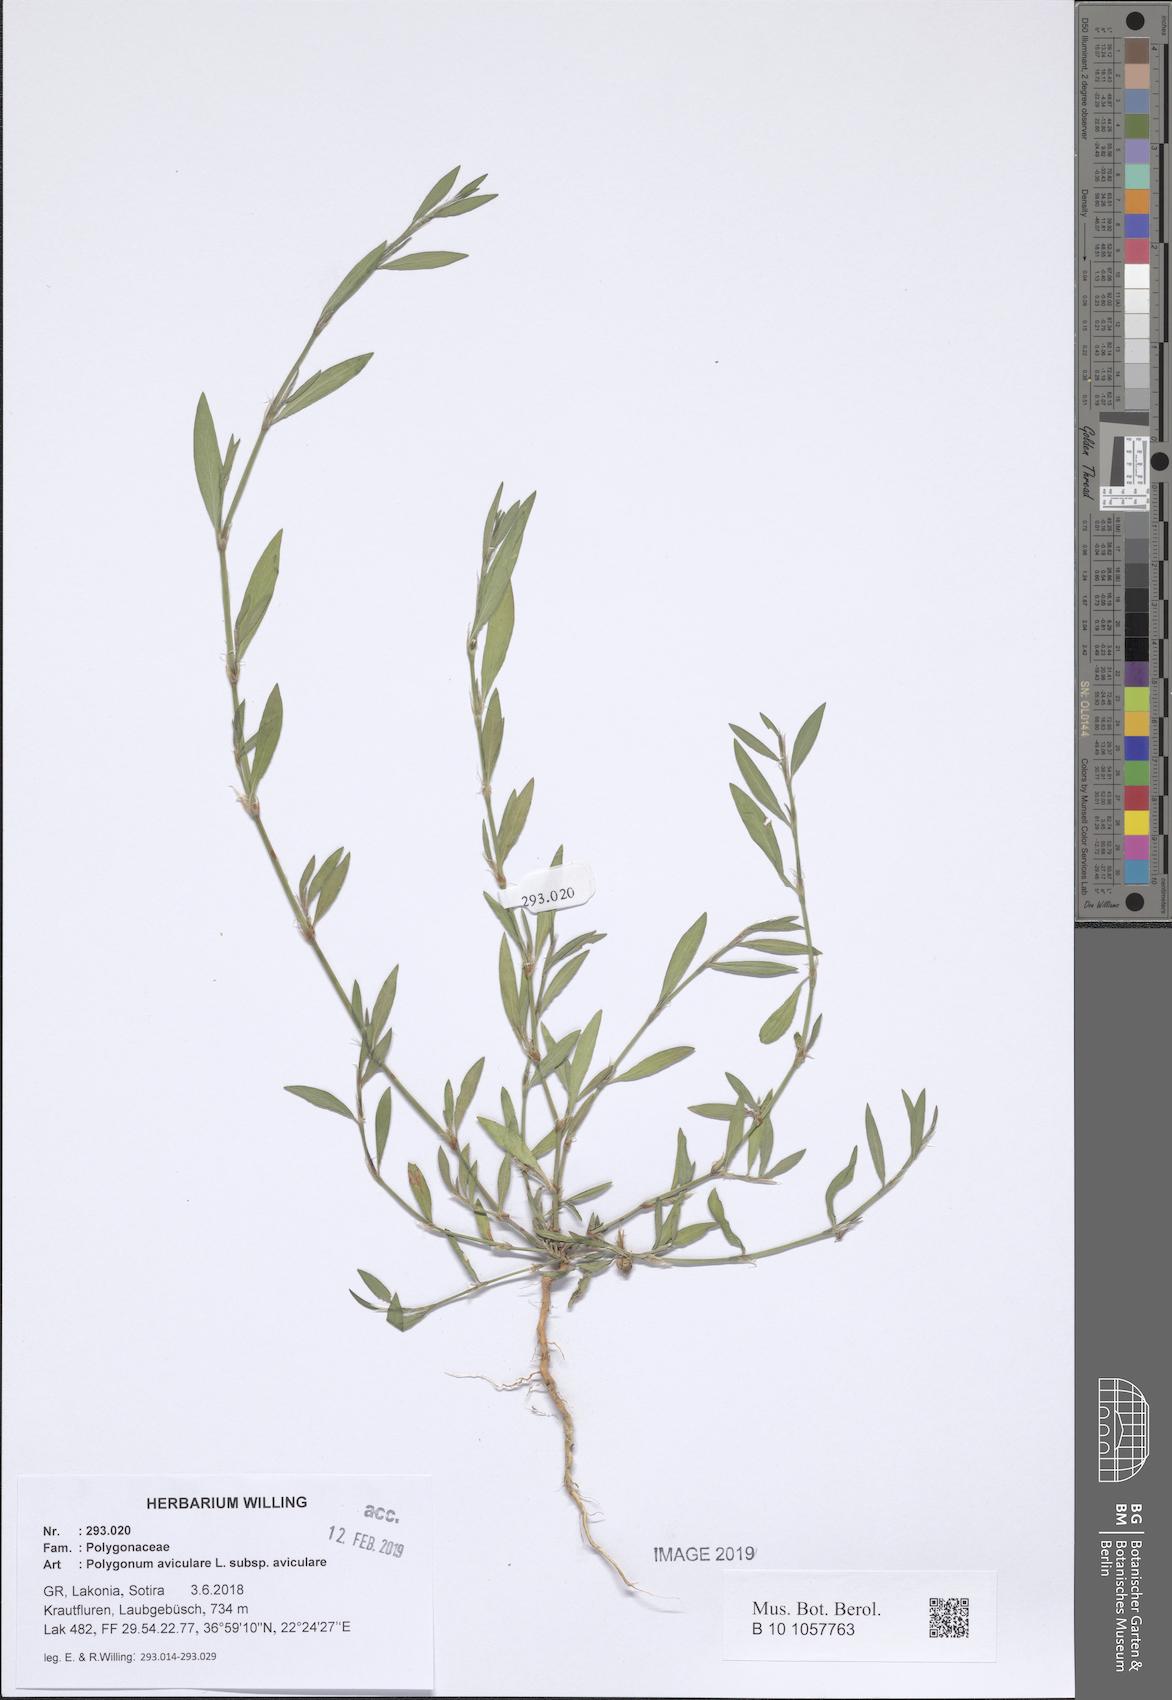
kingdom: Plantae
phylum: Tracheophyta
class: Magnoliopsida
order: Caryophyllales
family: Polygonaceae
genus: Polygonum
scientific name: Polygonum aviculare
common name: Prostrate knotweed
